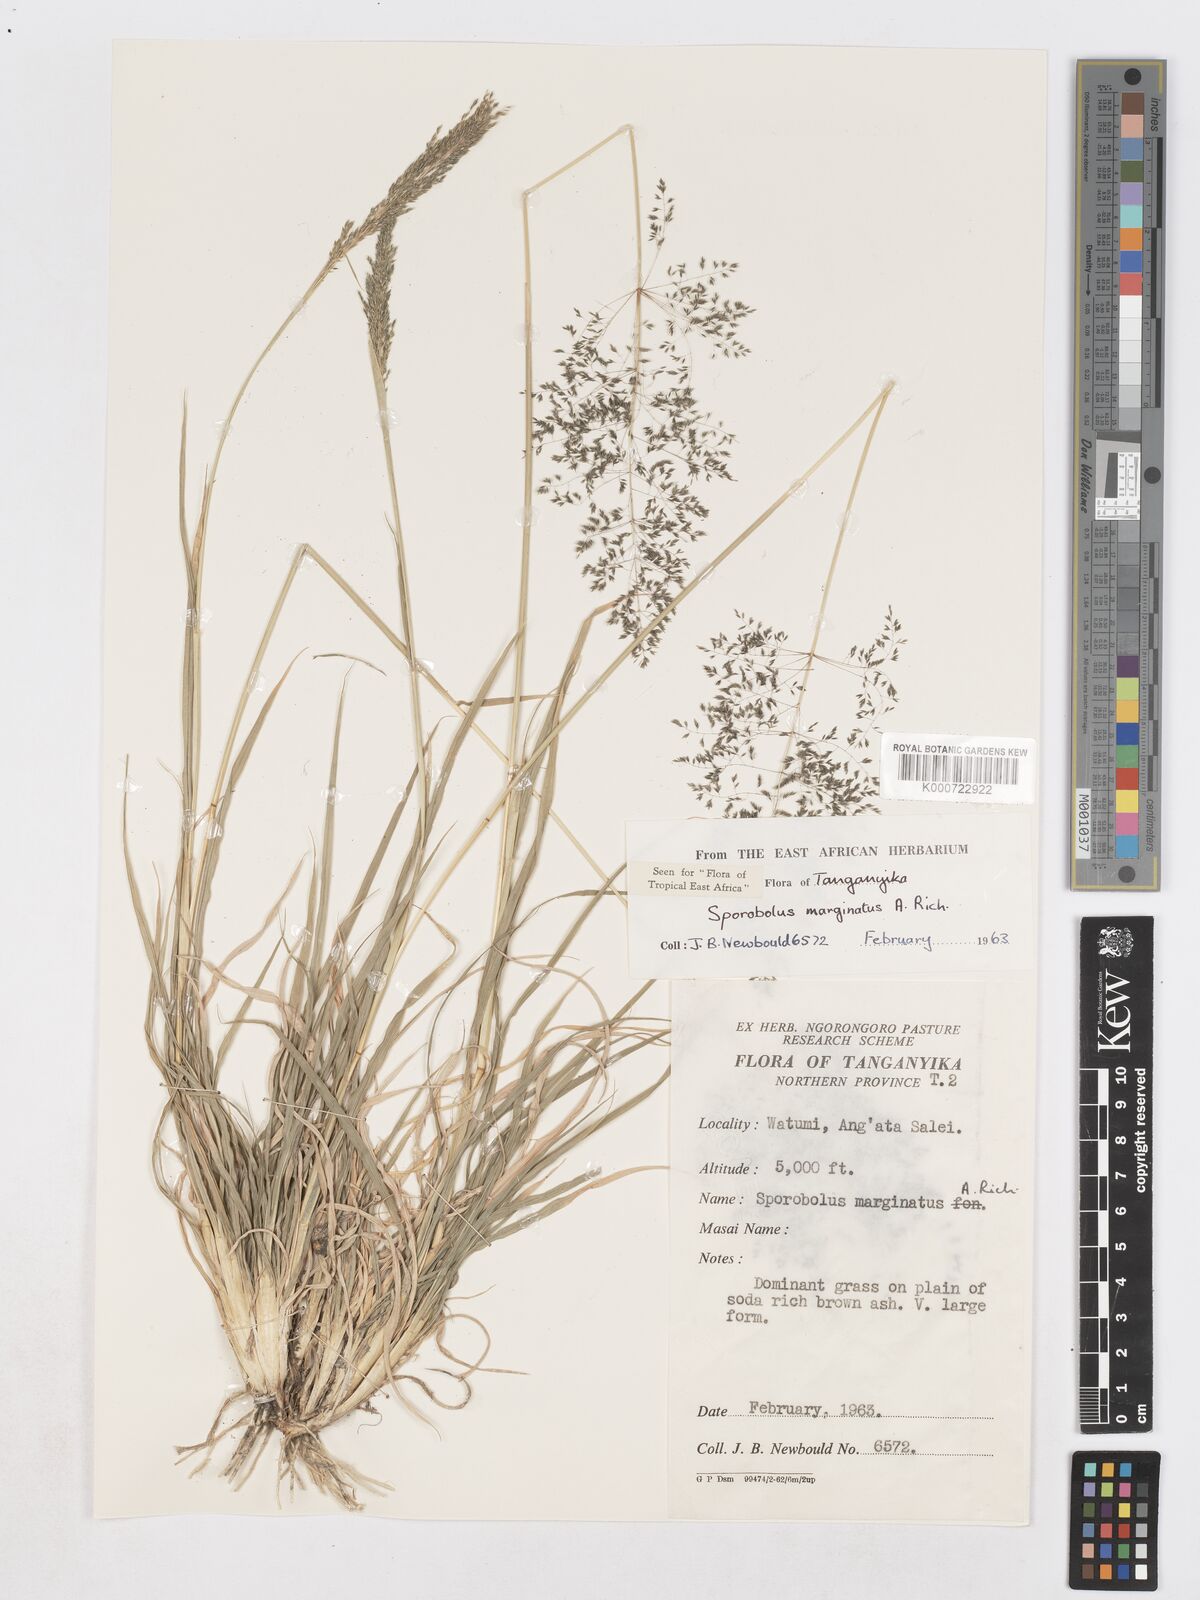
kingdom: Plantae
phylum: Tracheophyta
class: Liliopsida
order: Poales
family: Poaceae
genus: Sporobolus
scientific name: Sporobolus ioclados
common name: Pan dropseed
